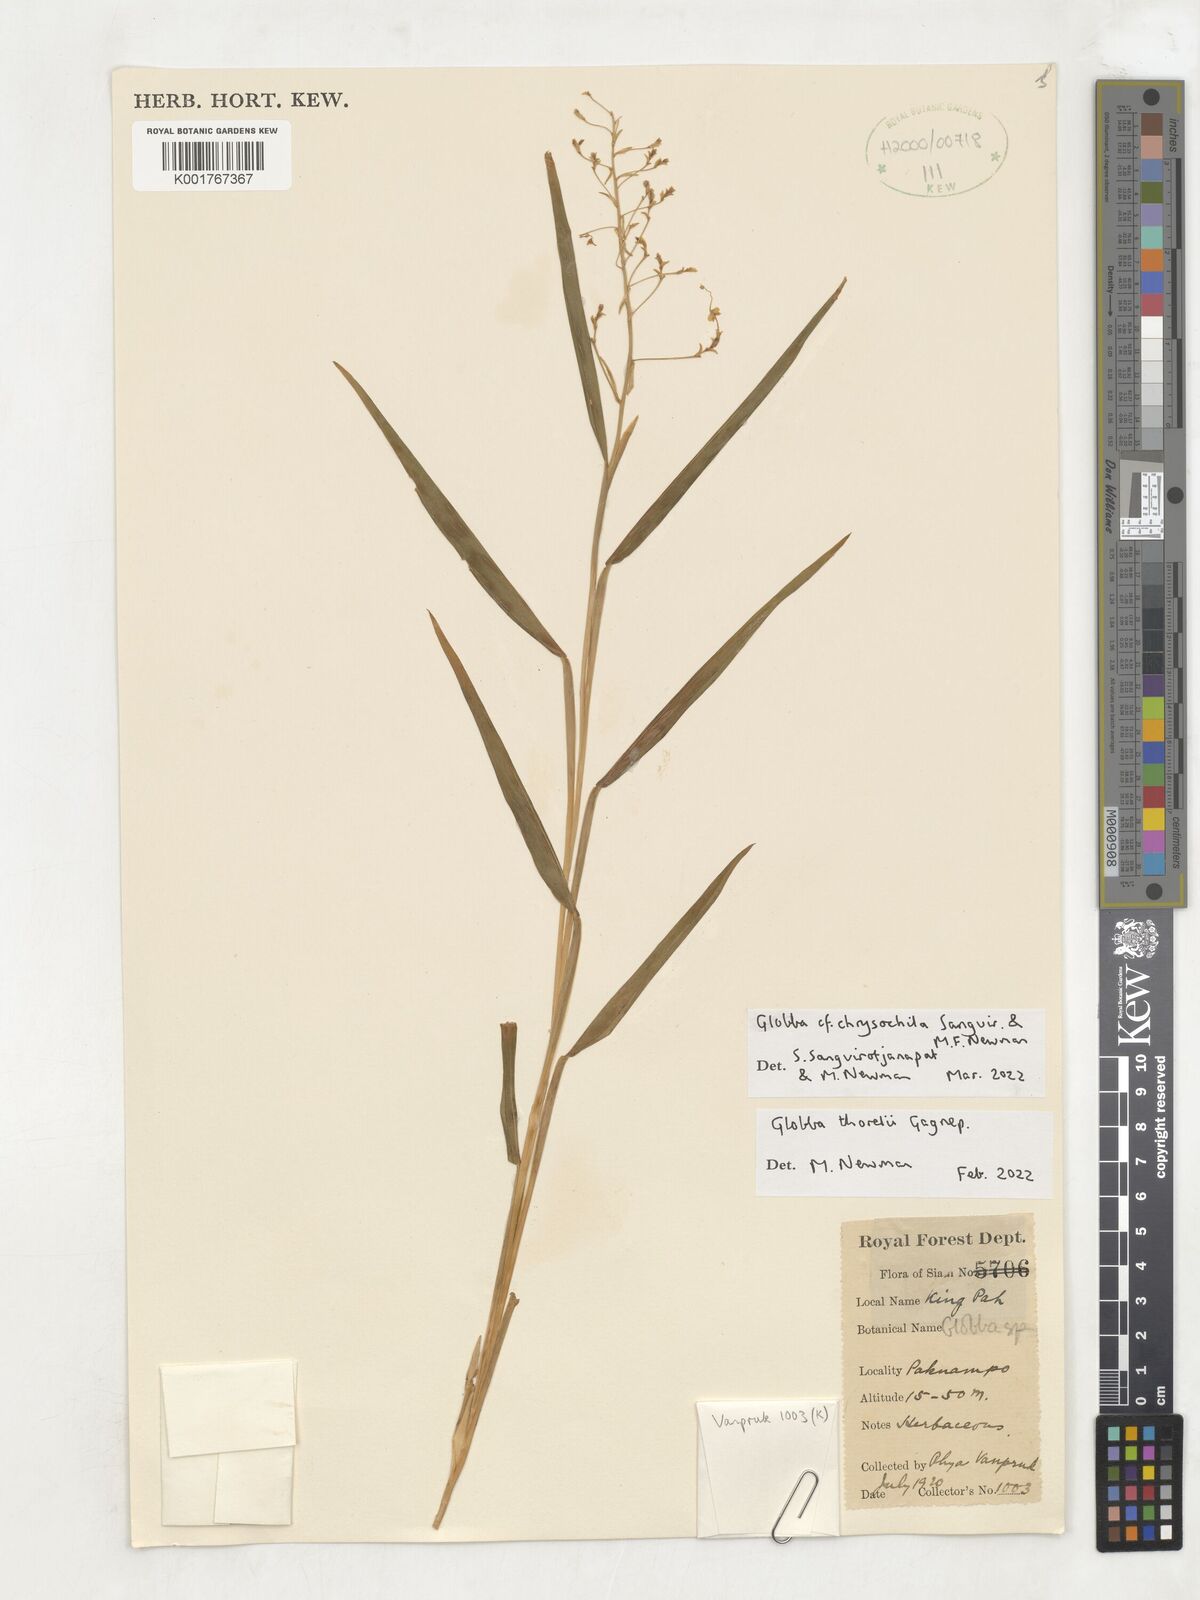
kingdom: Plantae
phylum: Tracheophyta
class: Liliopsida
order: Zingiberales
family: Zingiberaceae
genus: Globba
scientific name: Globba
